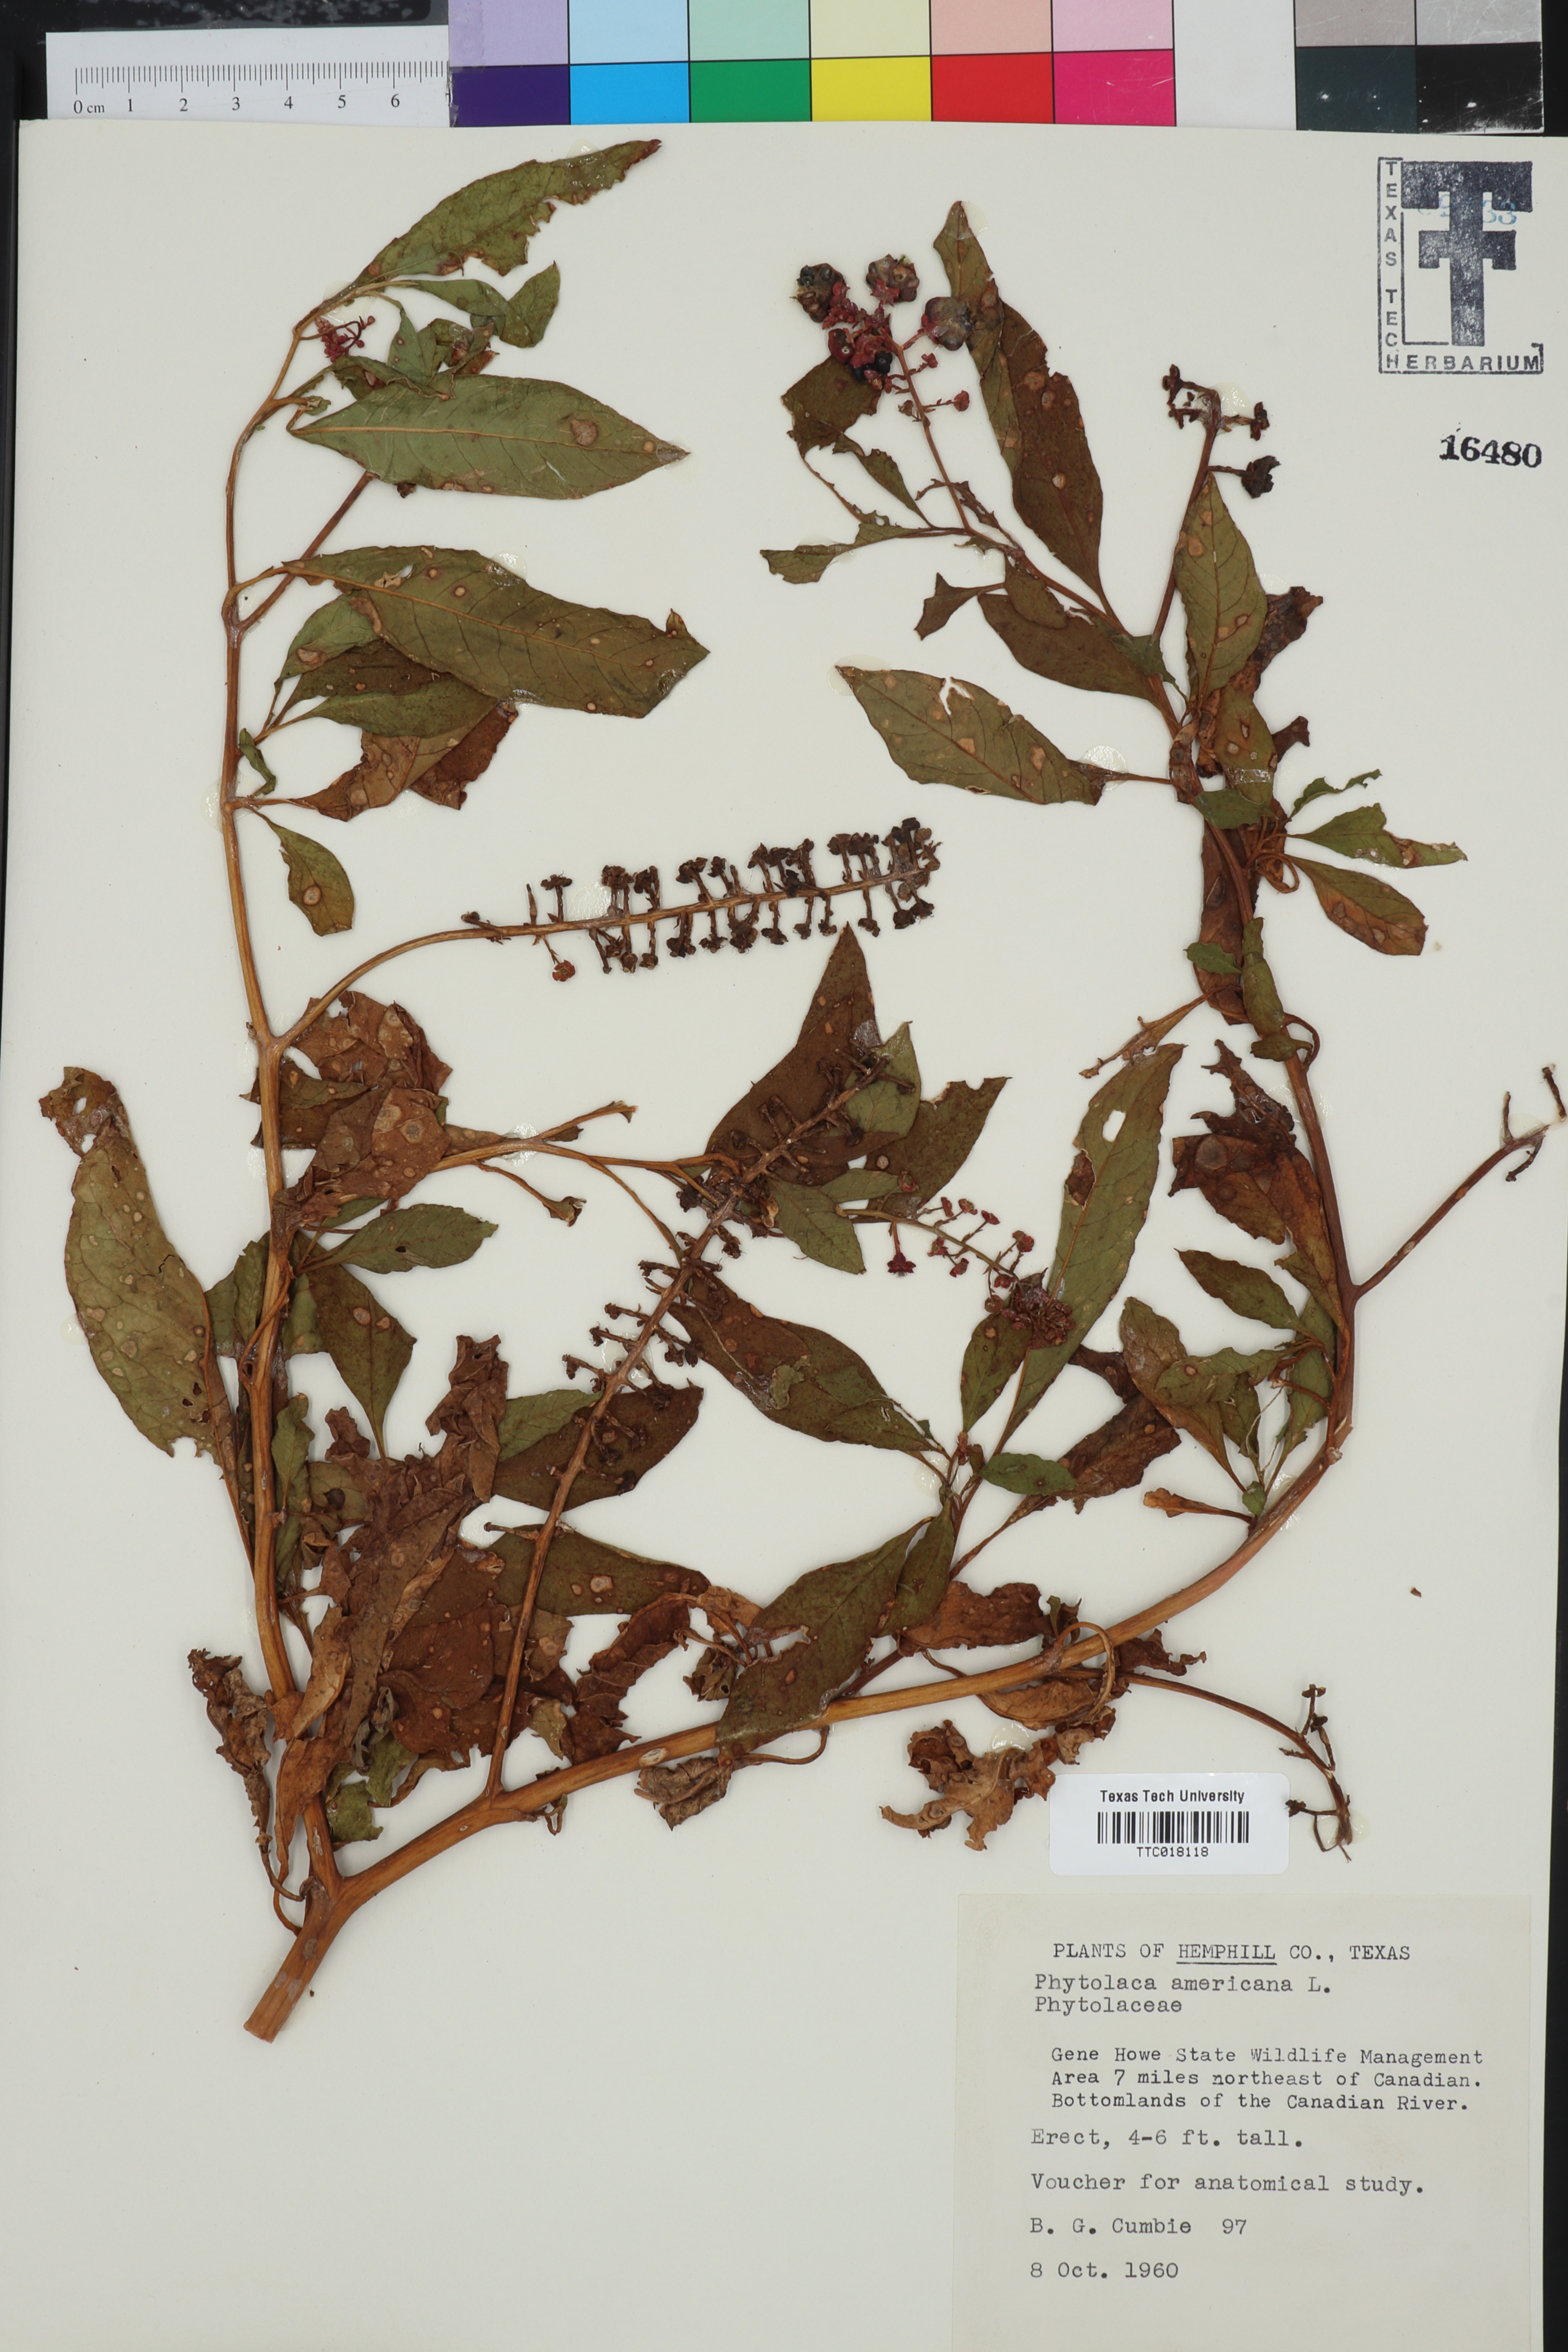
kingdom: Plantae
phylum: Tracheophyta
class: Magnoliopsida
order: Caryophyllales
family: Phytolaccaceae
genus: Phytolacca
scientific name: Phytolacca americana
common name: American pokeweed
